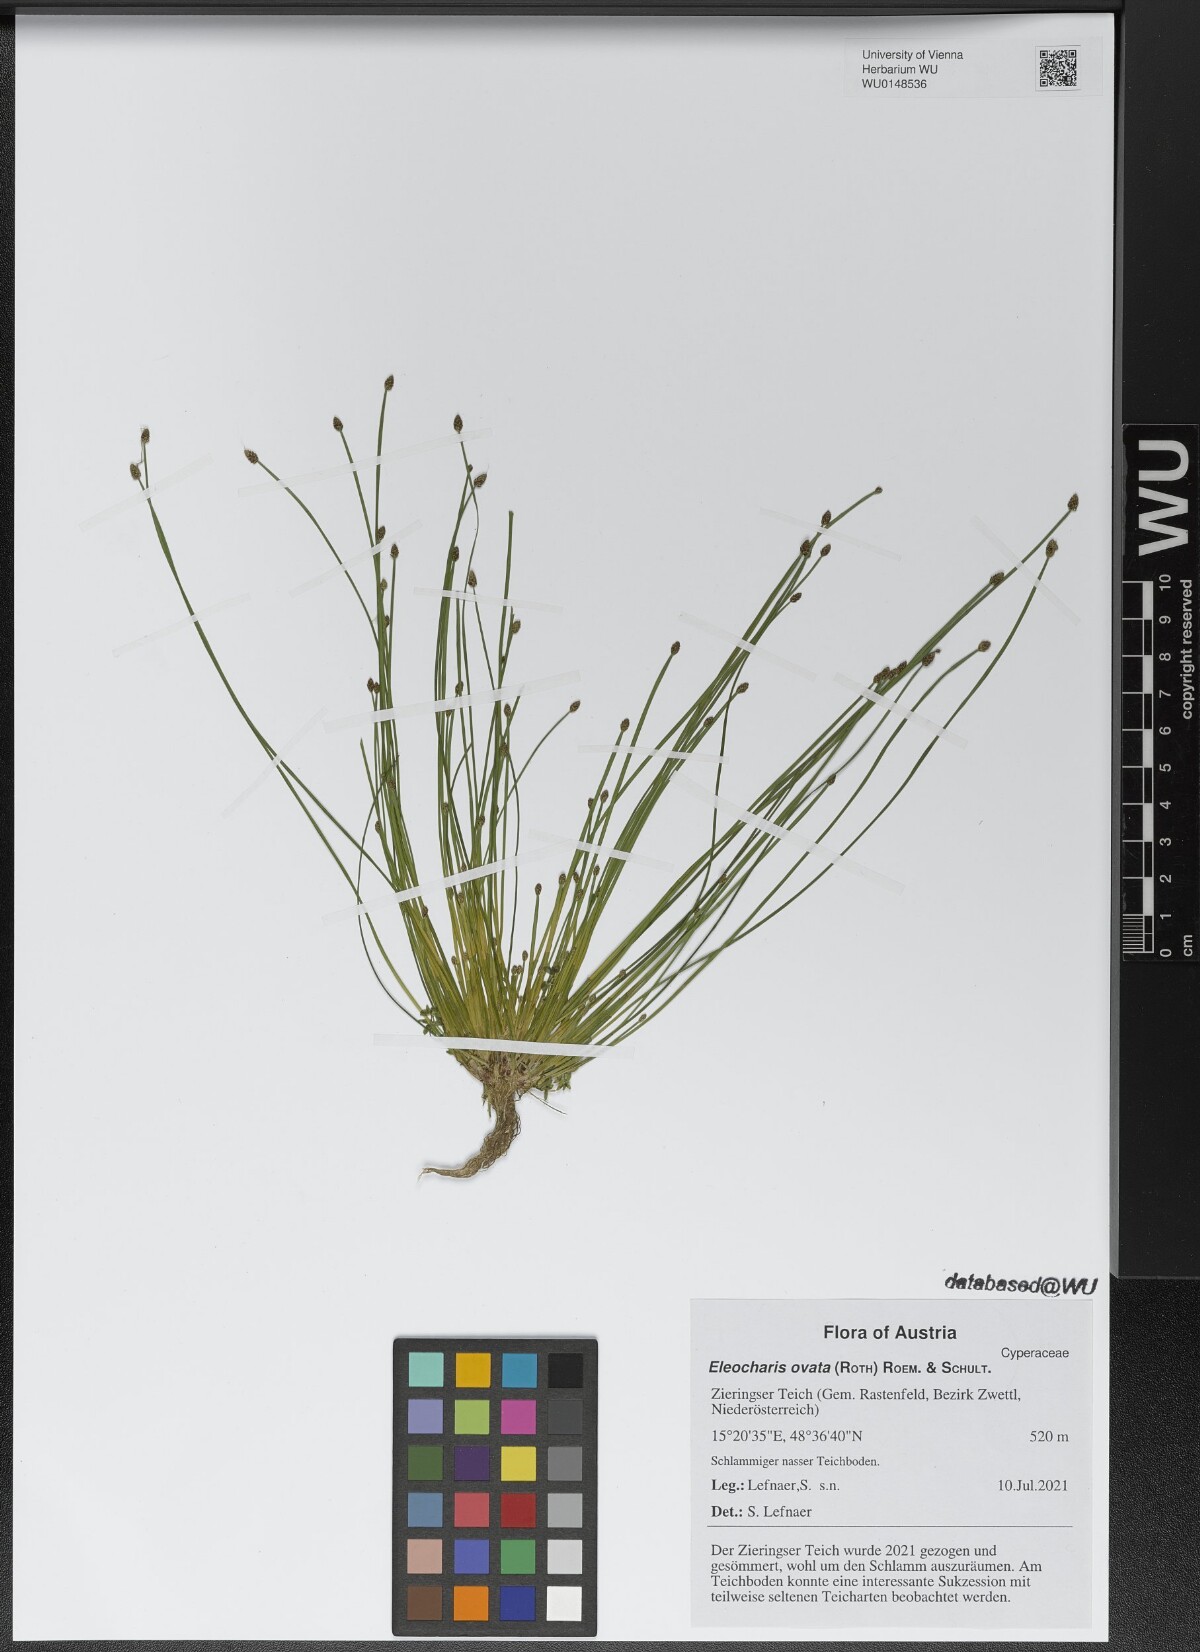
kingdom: Plantae
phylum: Tracheophyta
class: Liliopsida
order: Poales
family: Cyperaceae
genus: Eleocharis
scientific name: Eleocharis ovata
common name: Oval spike-rush
